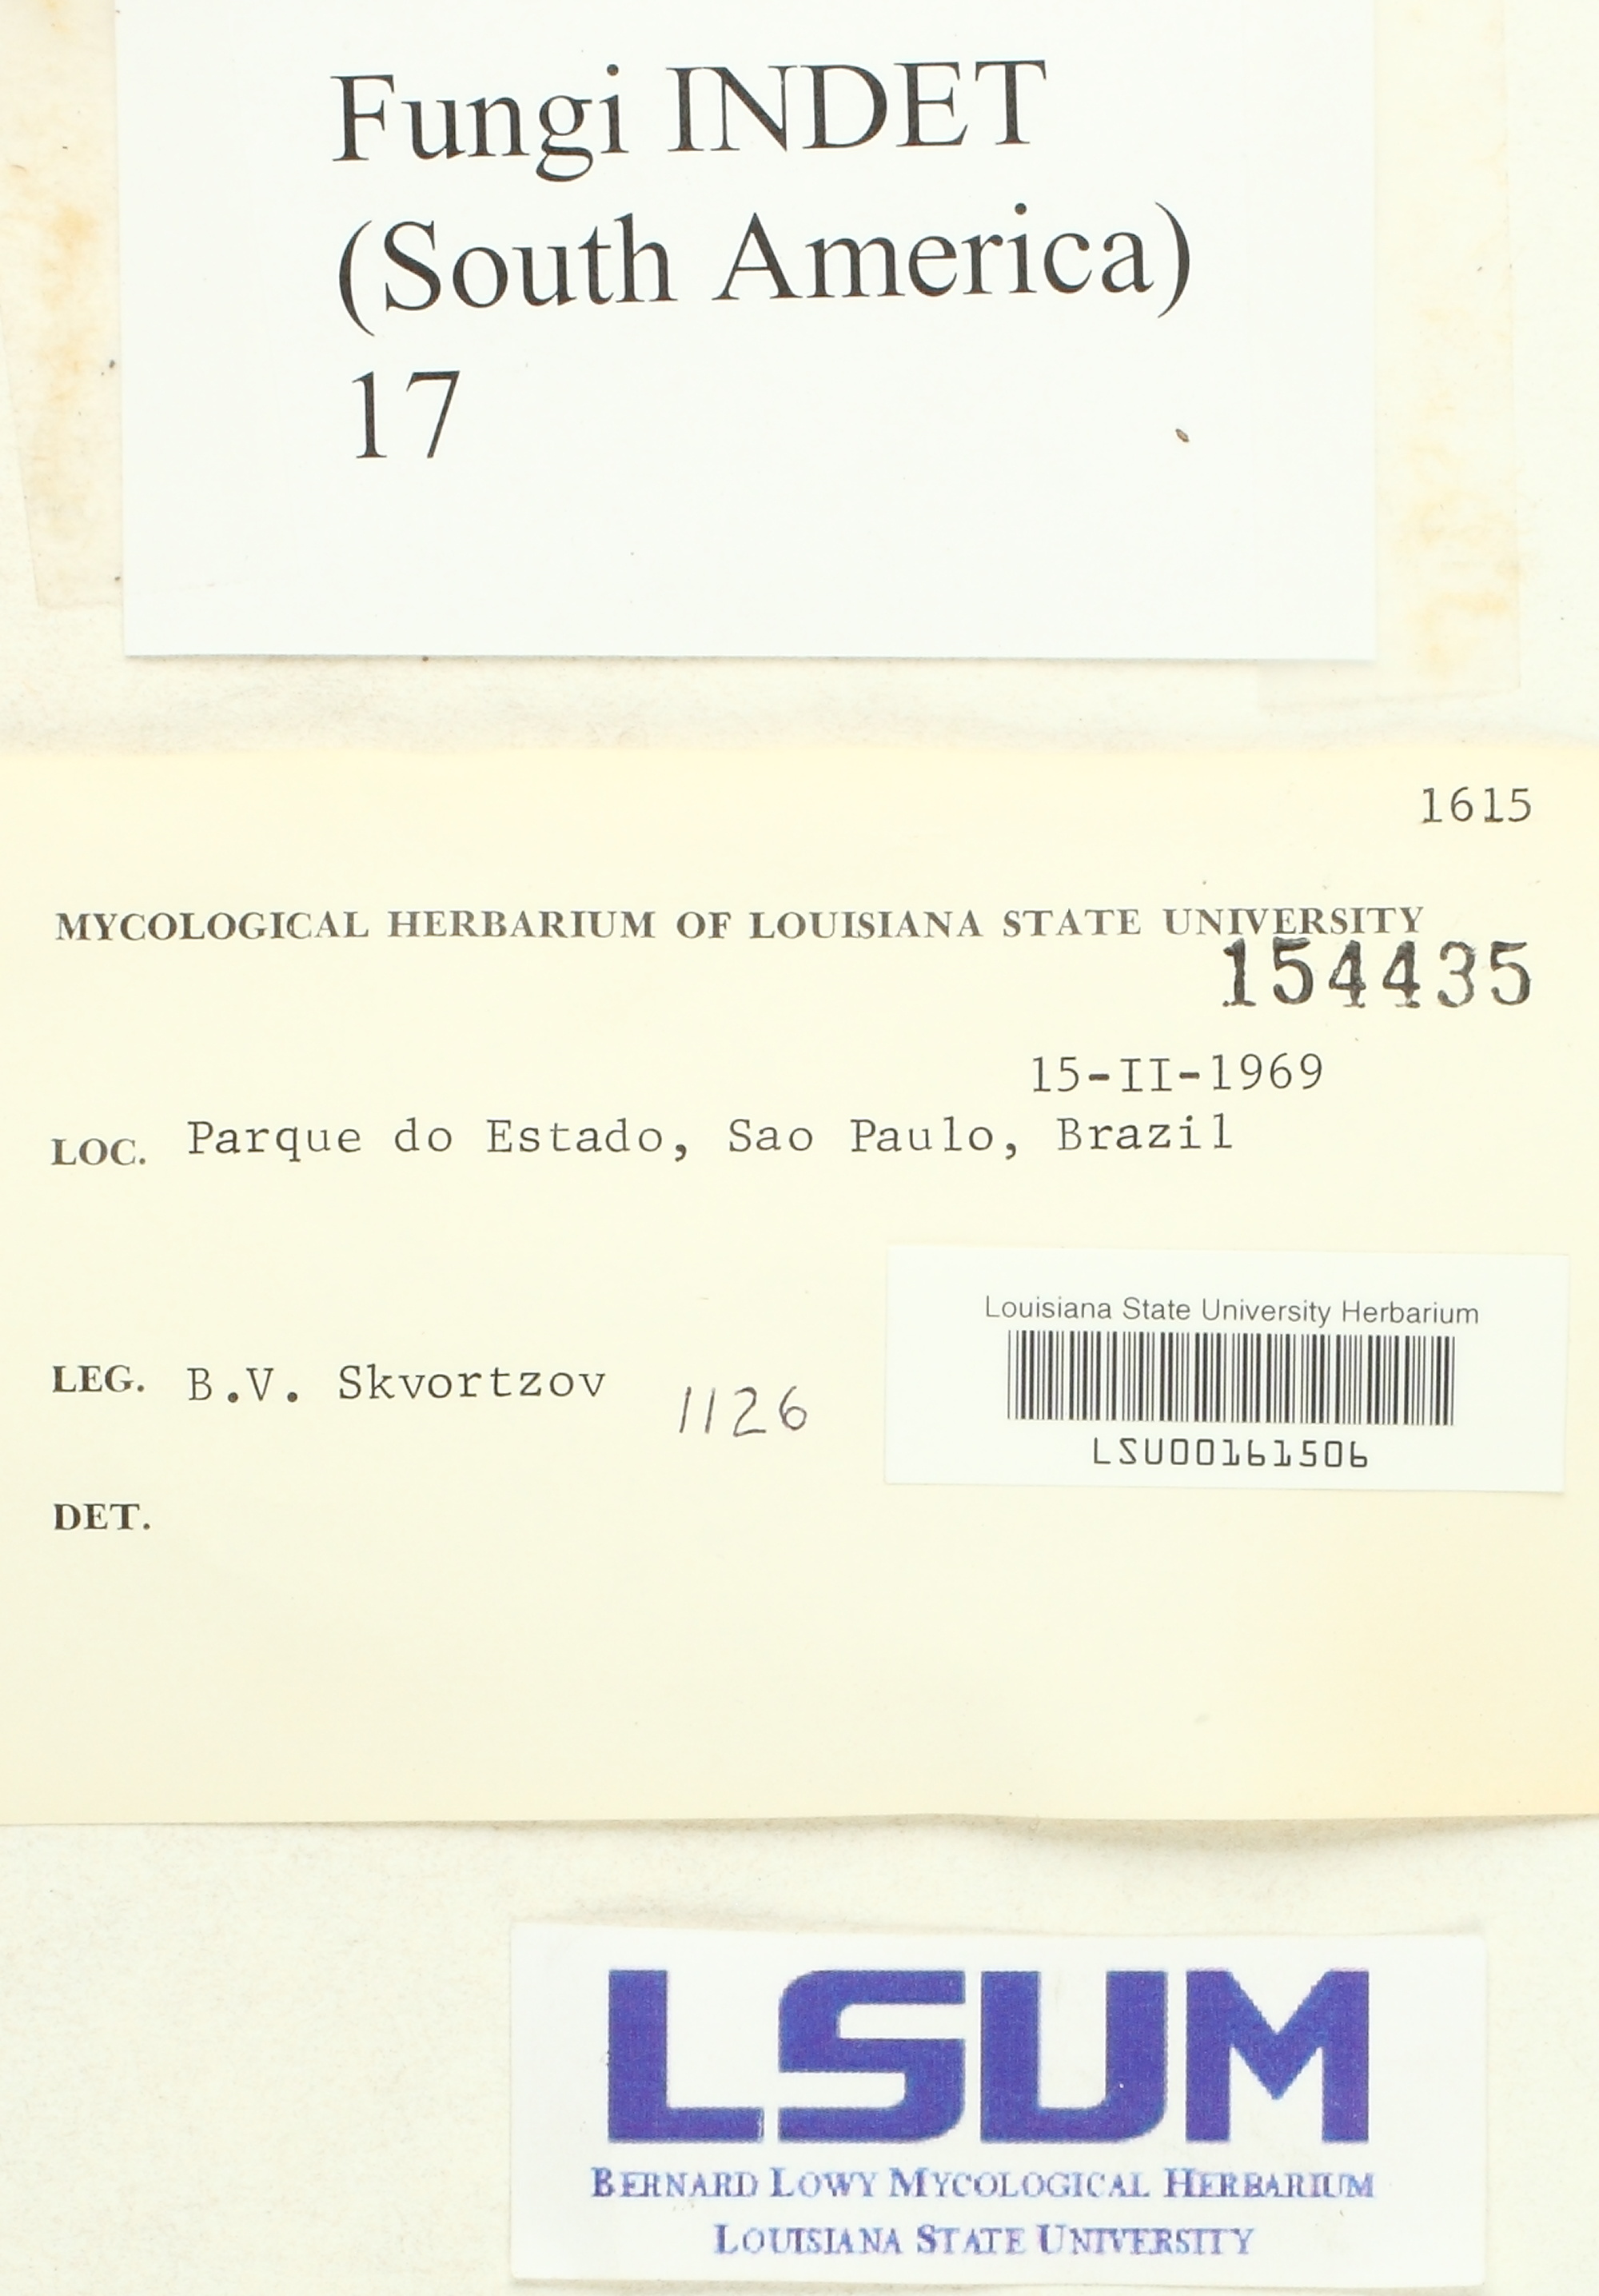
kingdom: Fungi
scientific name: Fungi
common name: Fungi
